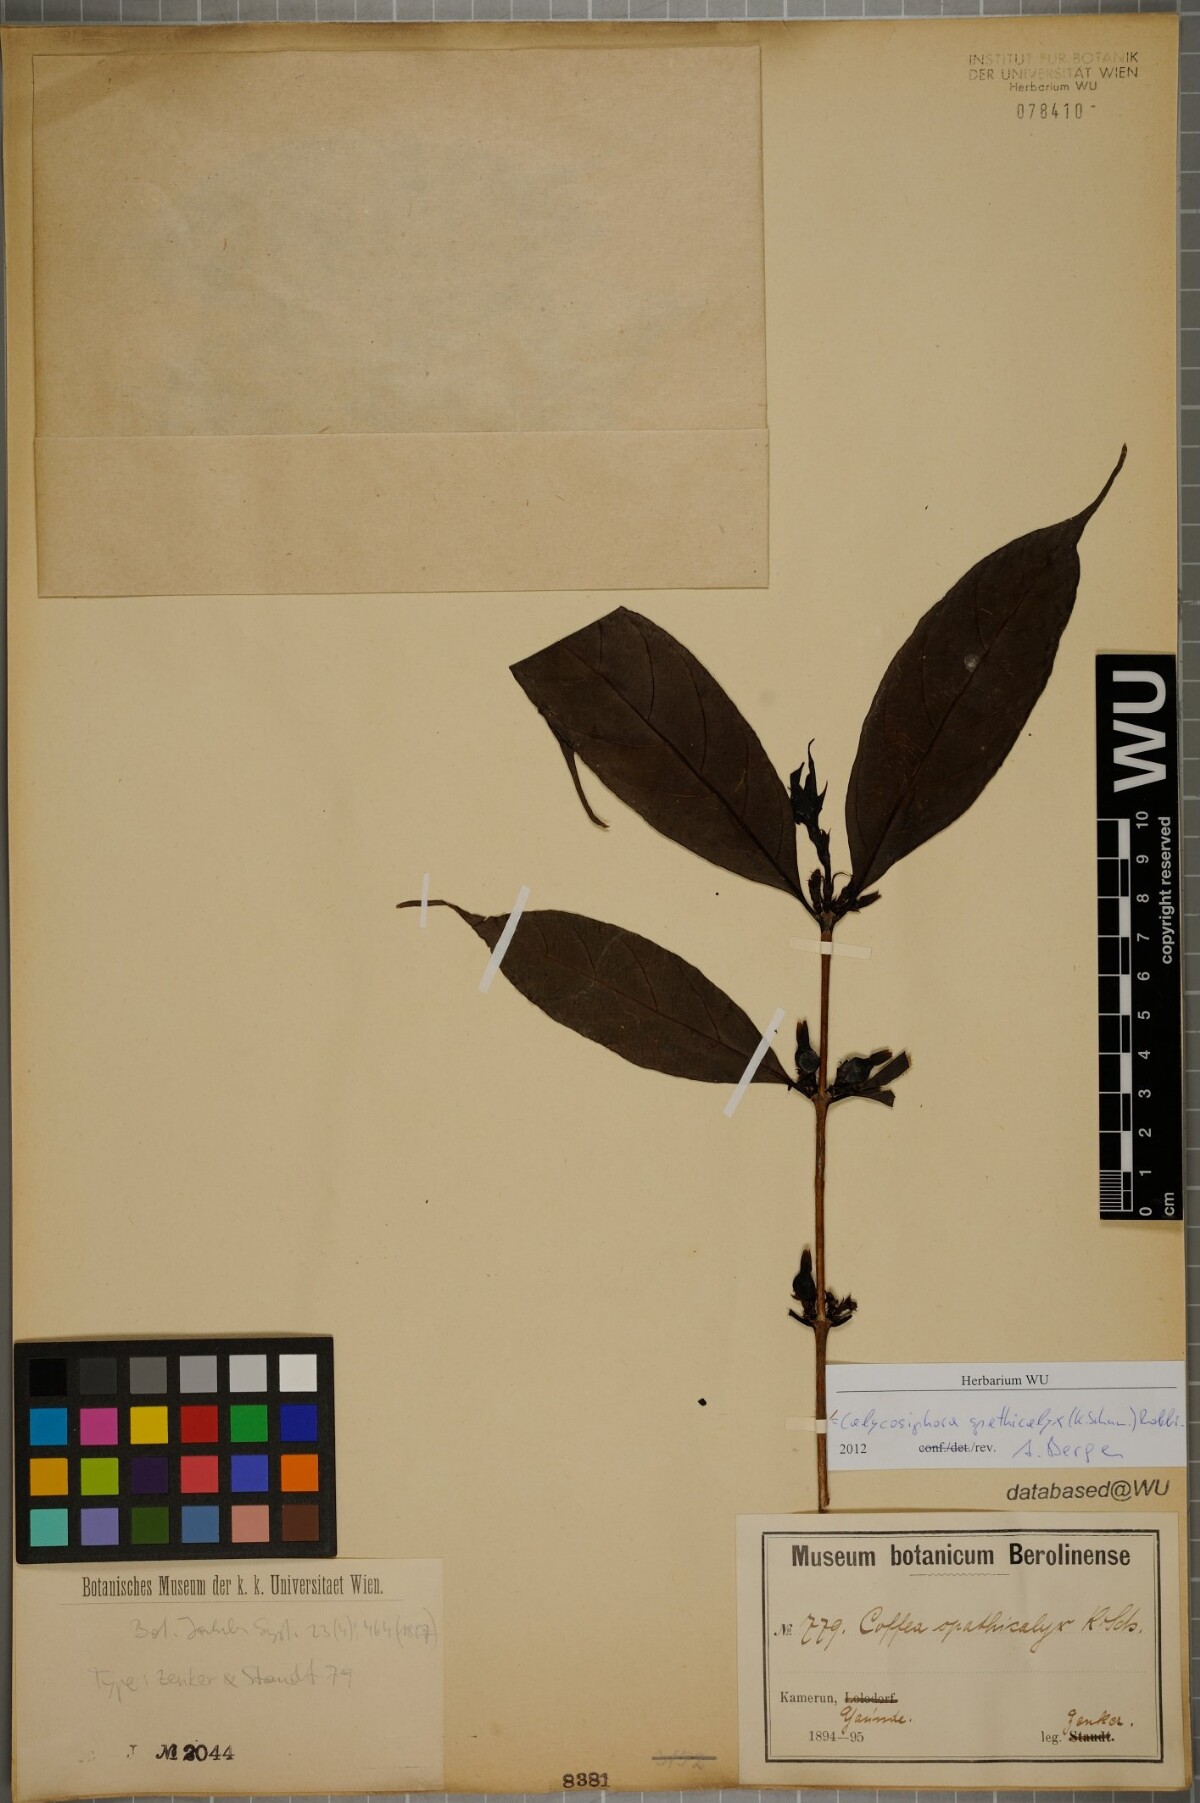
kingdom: Plantae
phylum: Tracheophyta
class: Magnoliopsida
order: Gentianales
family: Rubiaceae
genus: Calycosiphonia
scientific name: Calycosiphonia spathicalyx
